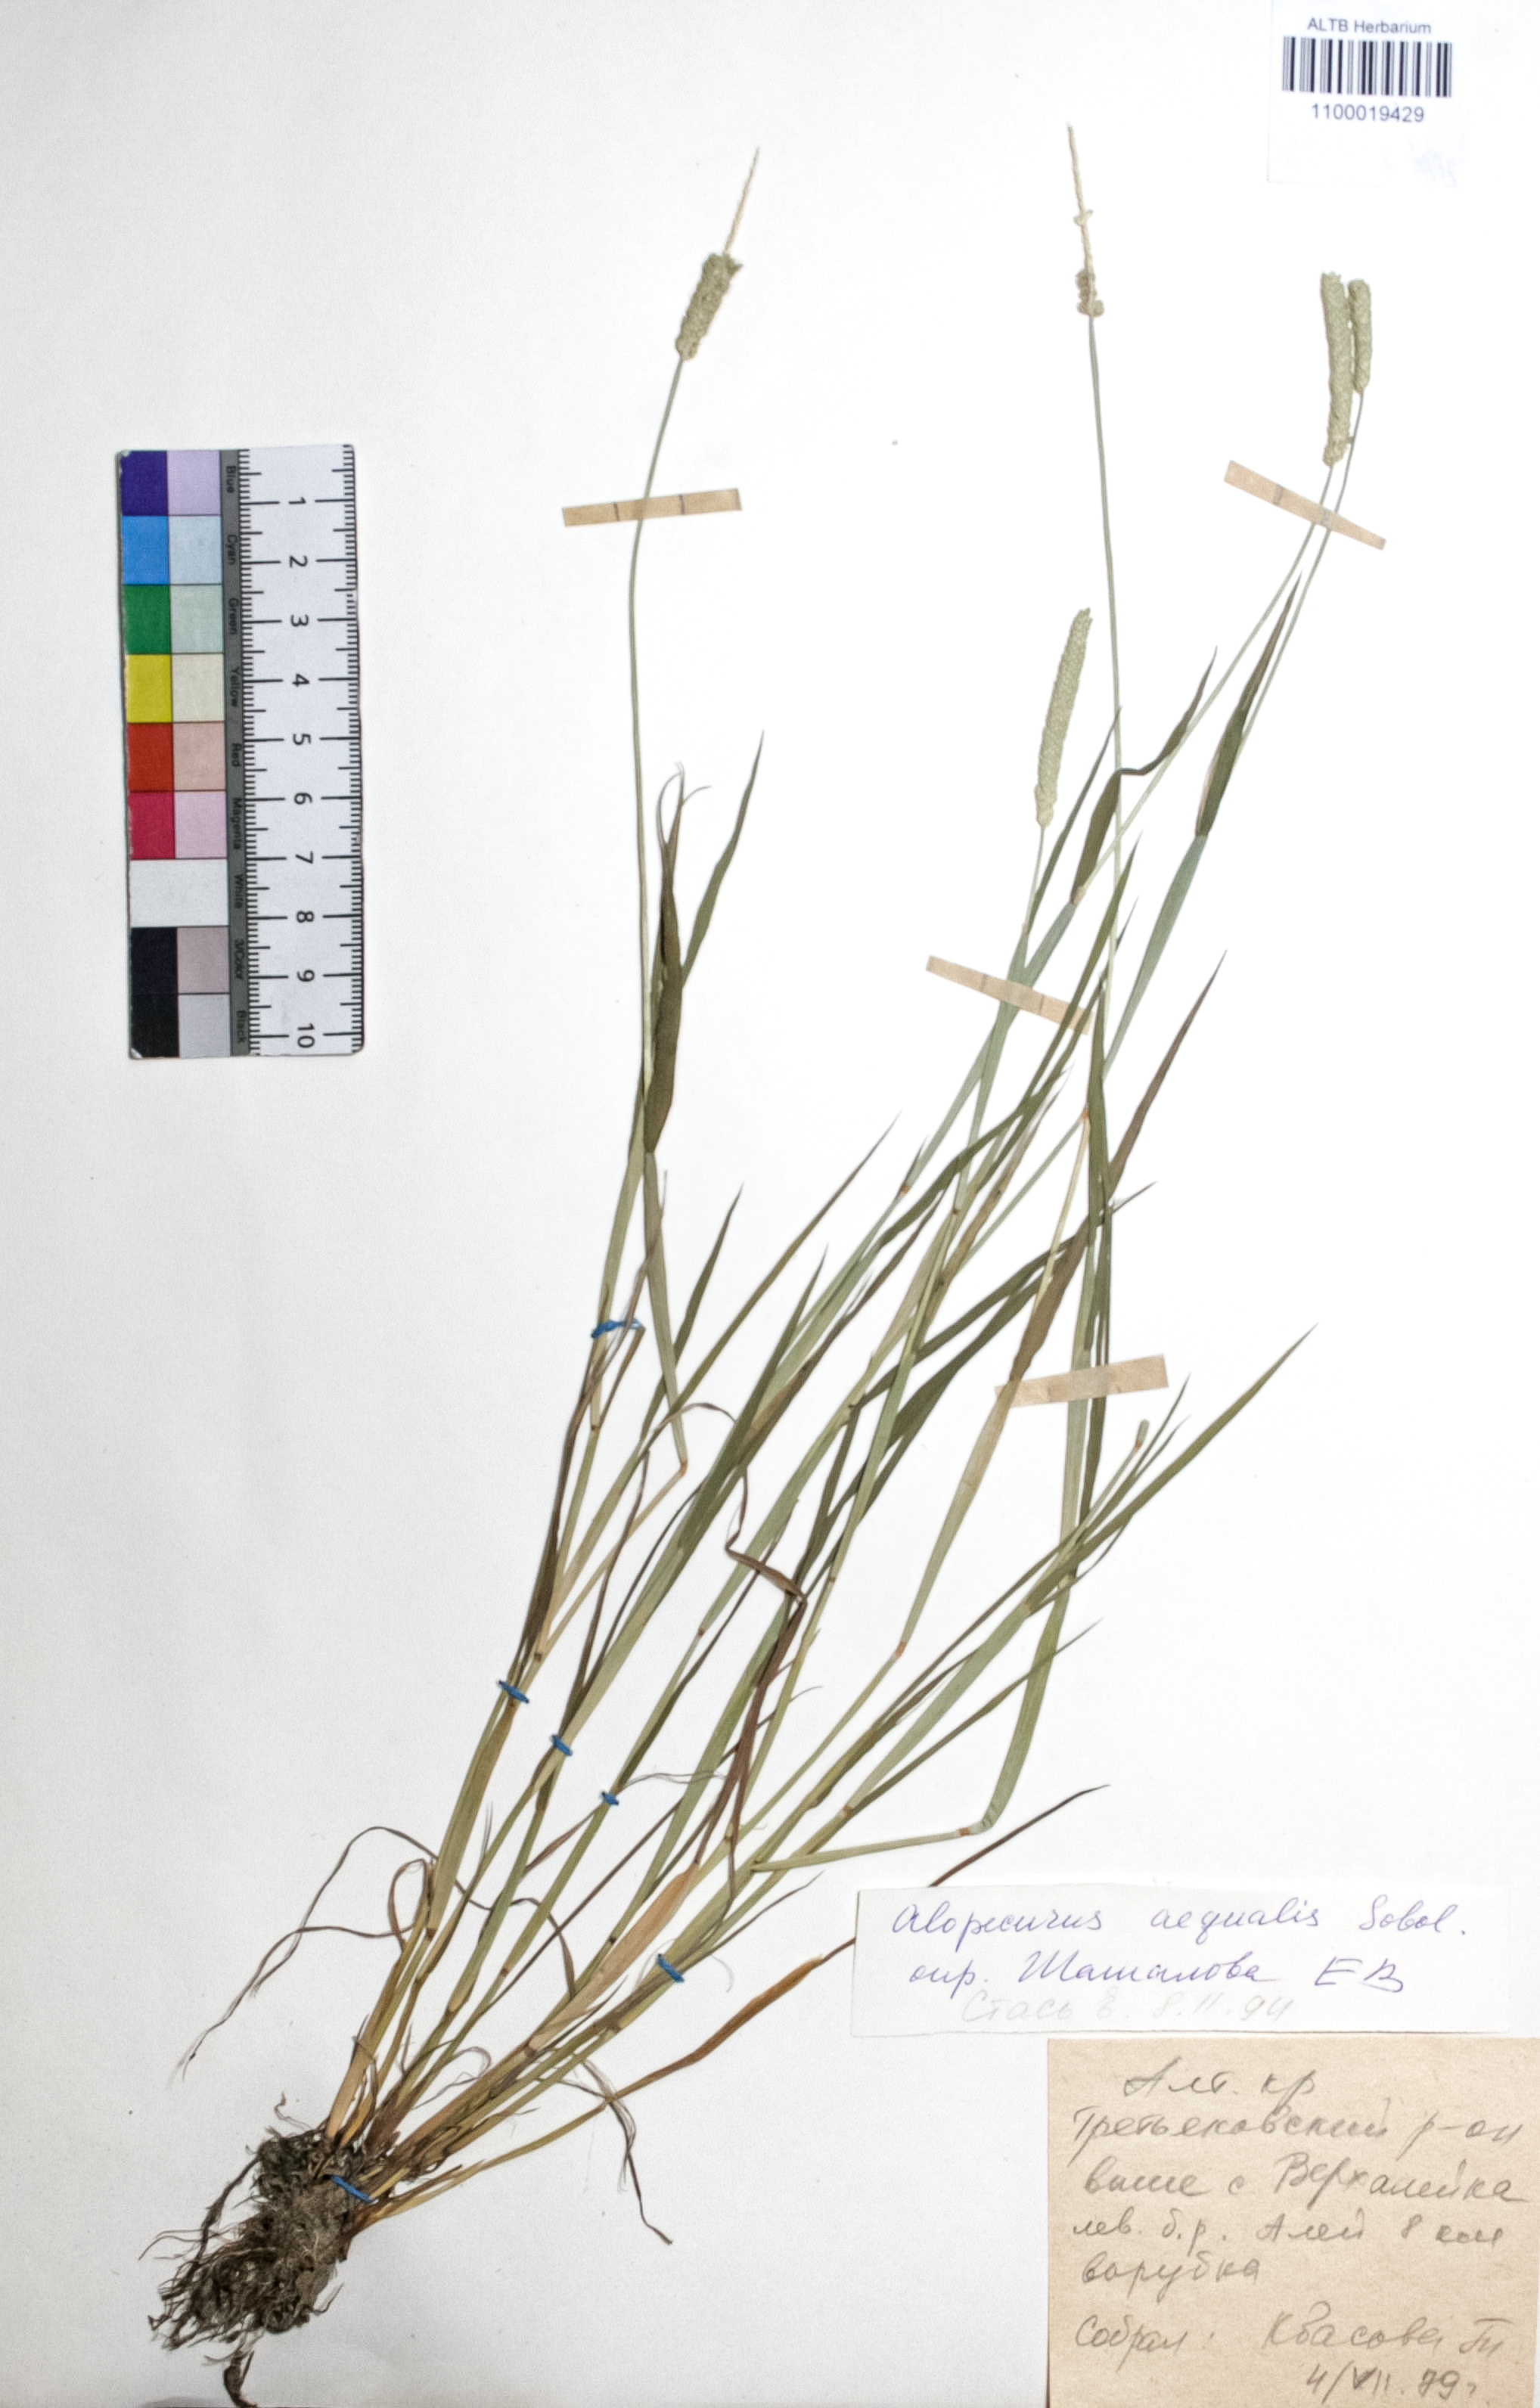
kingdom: Plantae
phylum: Tracheophyta
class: Liliopsida
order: Poales
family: Poaceae
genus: Alopecurus
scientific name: Alopecurus aequalis
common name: Orange foxtail
